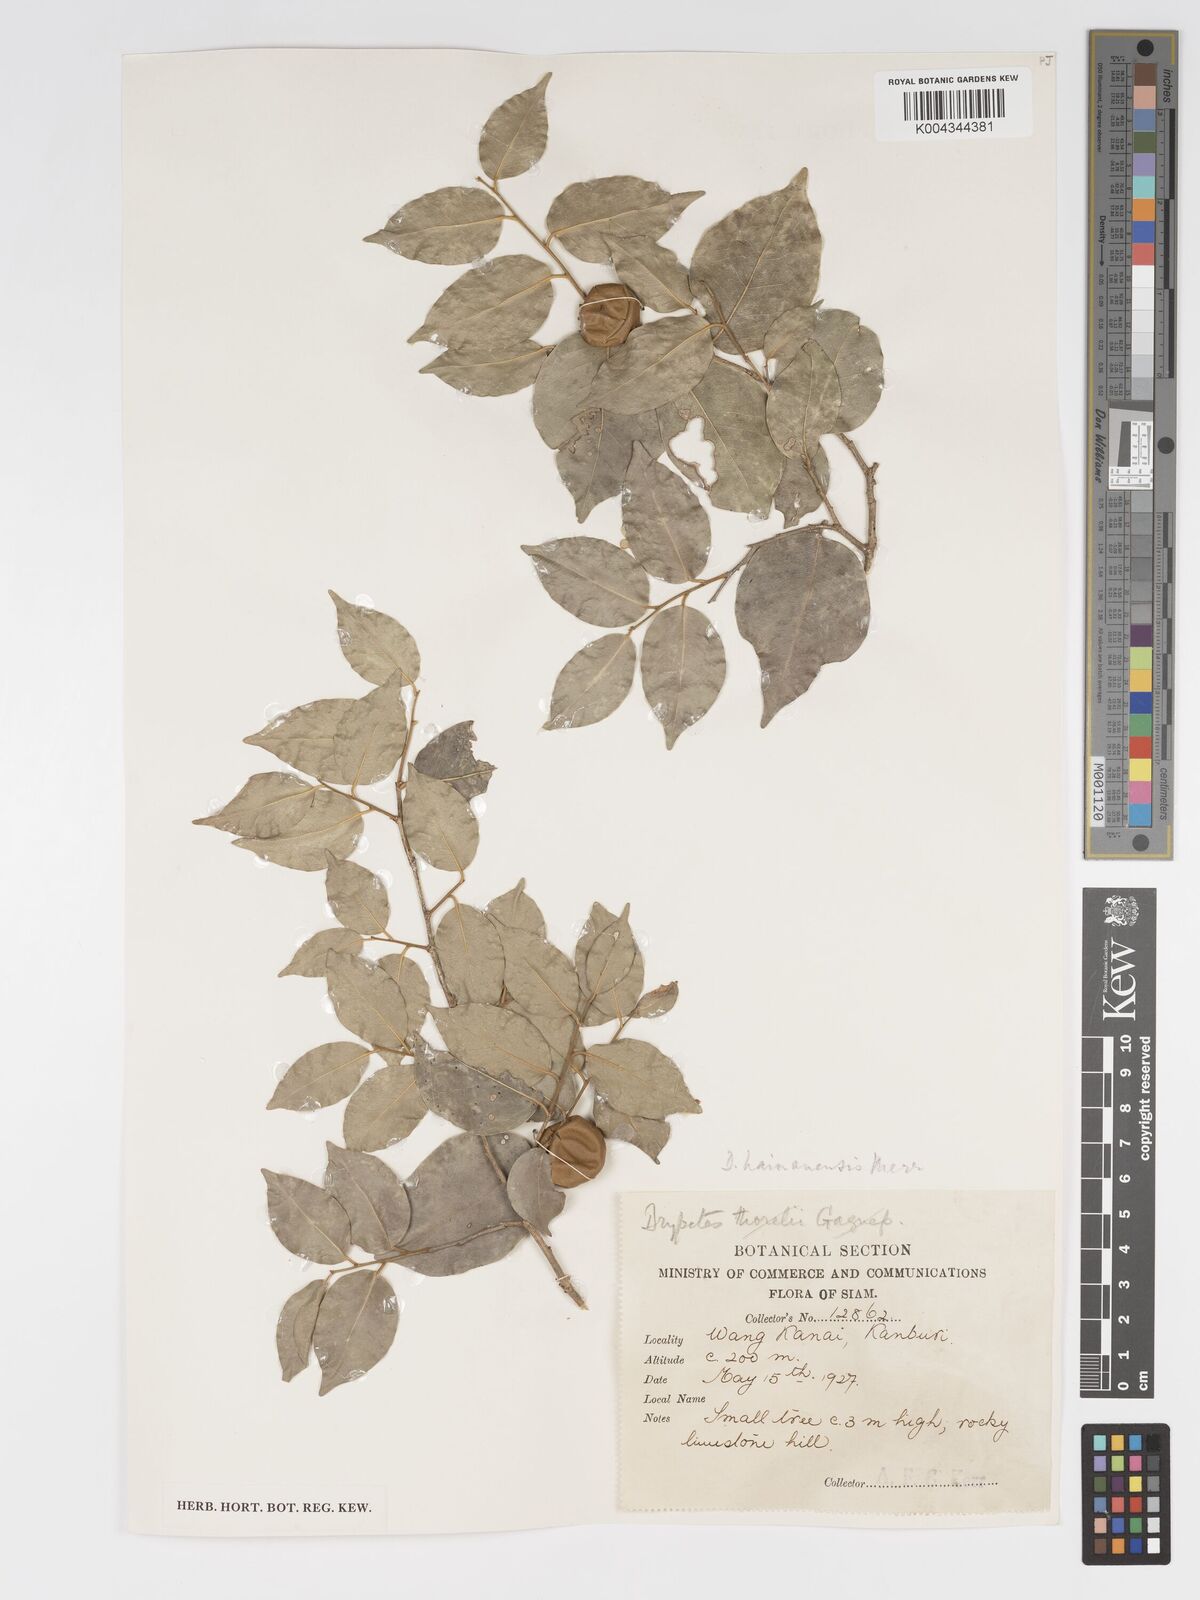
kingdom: Plantae
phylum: Tracheophyta
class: Magnoliopsida
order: Malpighiales
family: Putranjivaceae
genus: Drypetes
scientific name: Drypetes hainanensis
